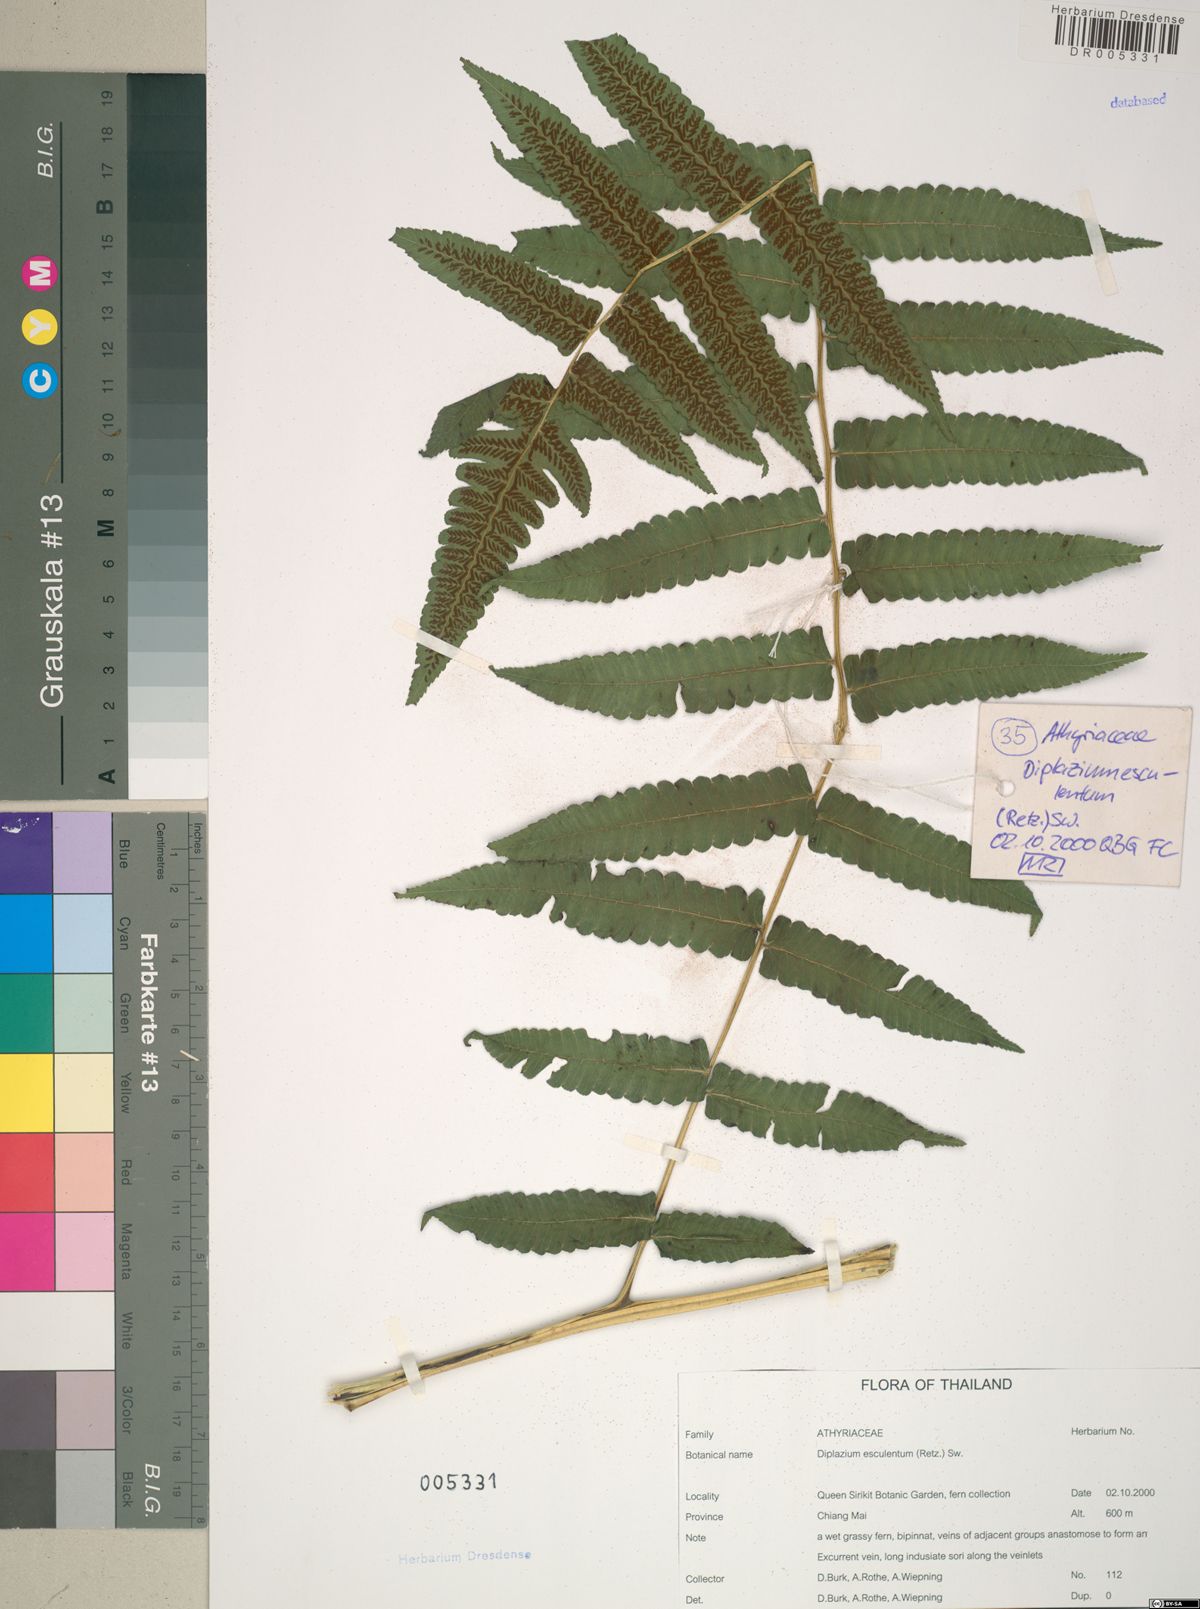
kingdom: Plantae
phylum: Tracheophyta
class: Polypodiopsida
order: Polypodiales
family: Athyriaceae
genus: Diplazium
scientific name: Diplazium esculentum
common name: Vegetable fern
